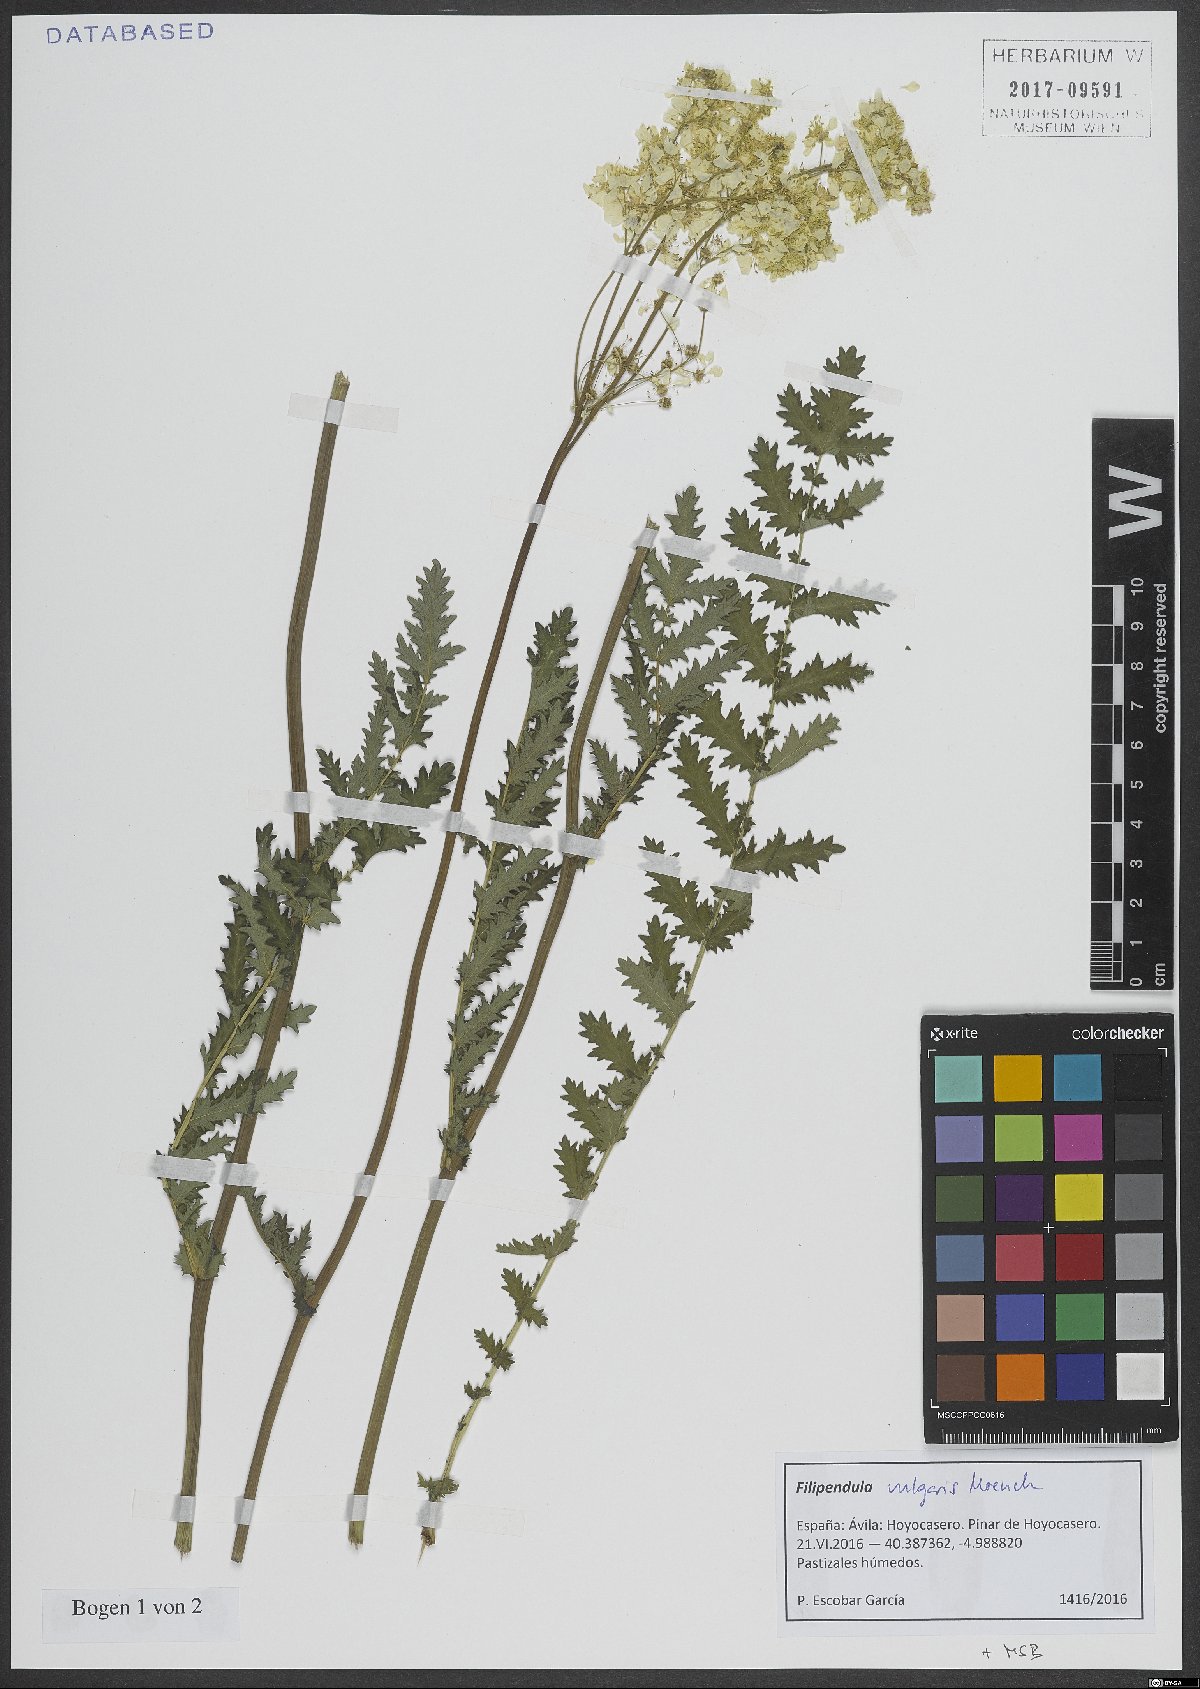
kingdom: Plantae
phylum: Tracheophyta
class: Magnoliopsida
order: Rosales
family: Rosaceae
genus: Filipendula
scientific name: Filipendula vulgaris
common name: Dropwort
